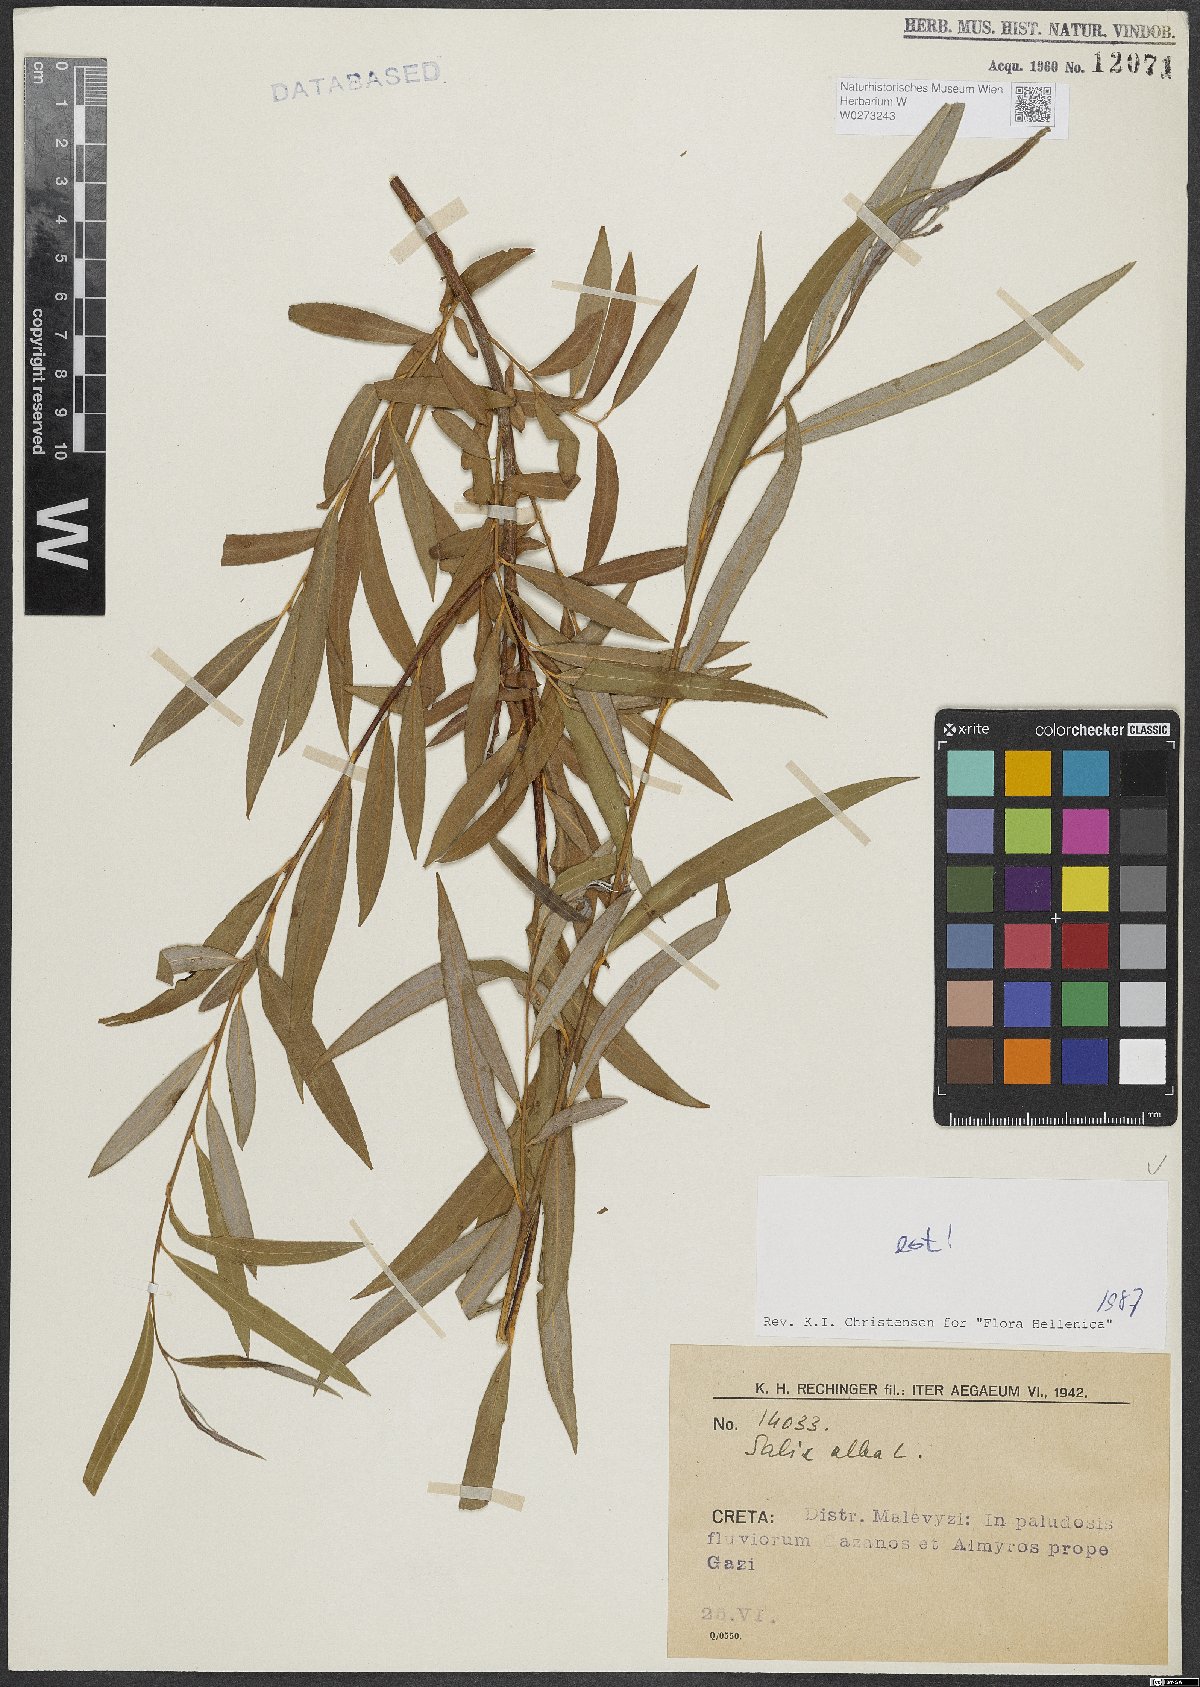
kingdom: Plantae
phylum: Tracheophyta
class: Magnoliopsida
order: Malpighiales
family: Salicaceae
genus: Salix
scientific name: Salix alba
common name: White willow
